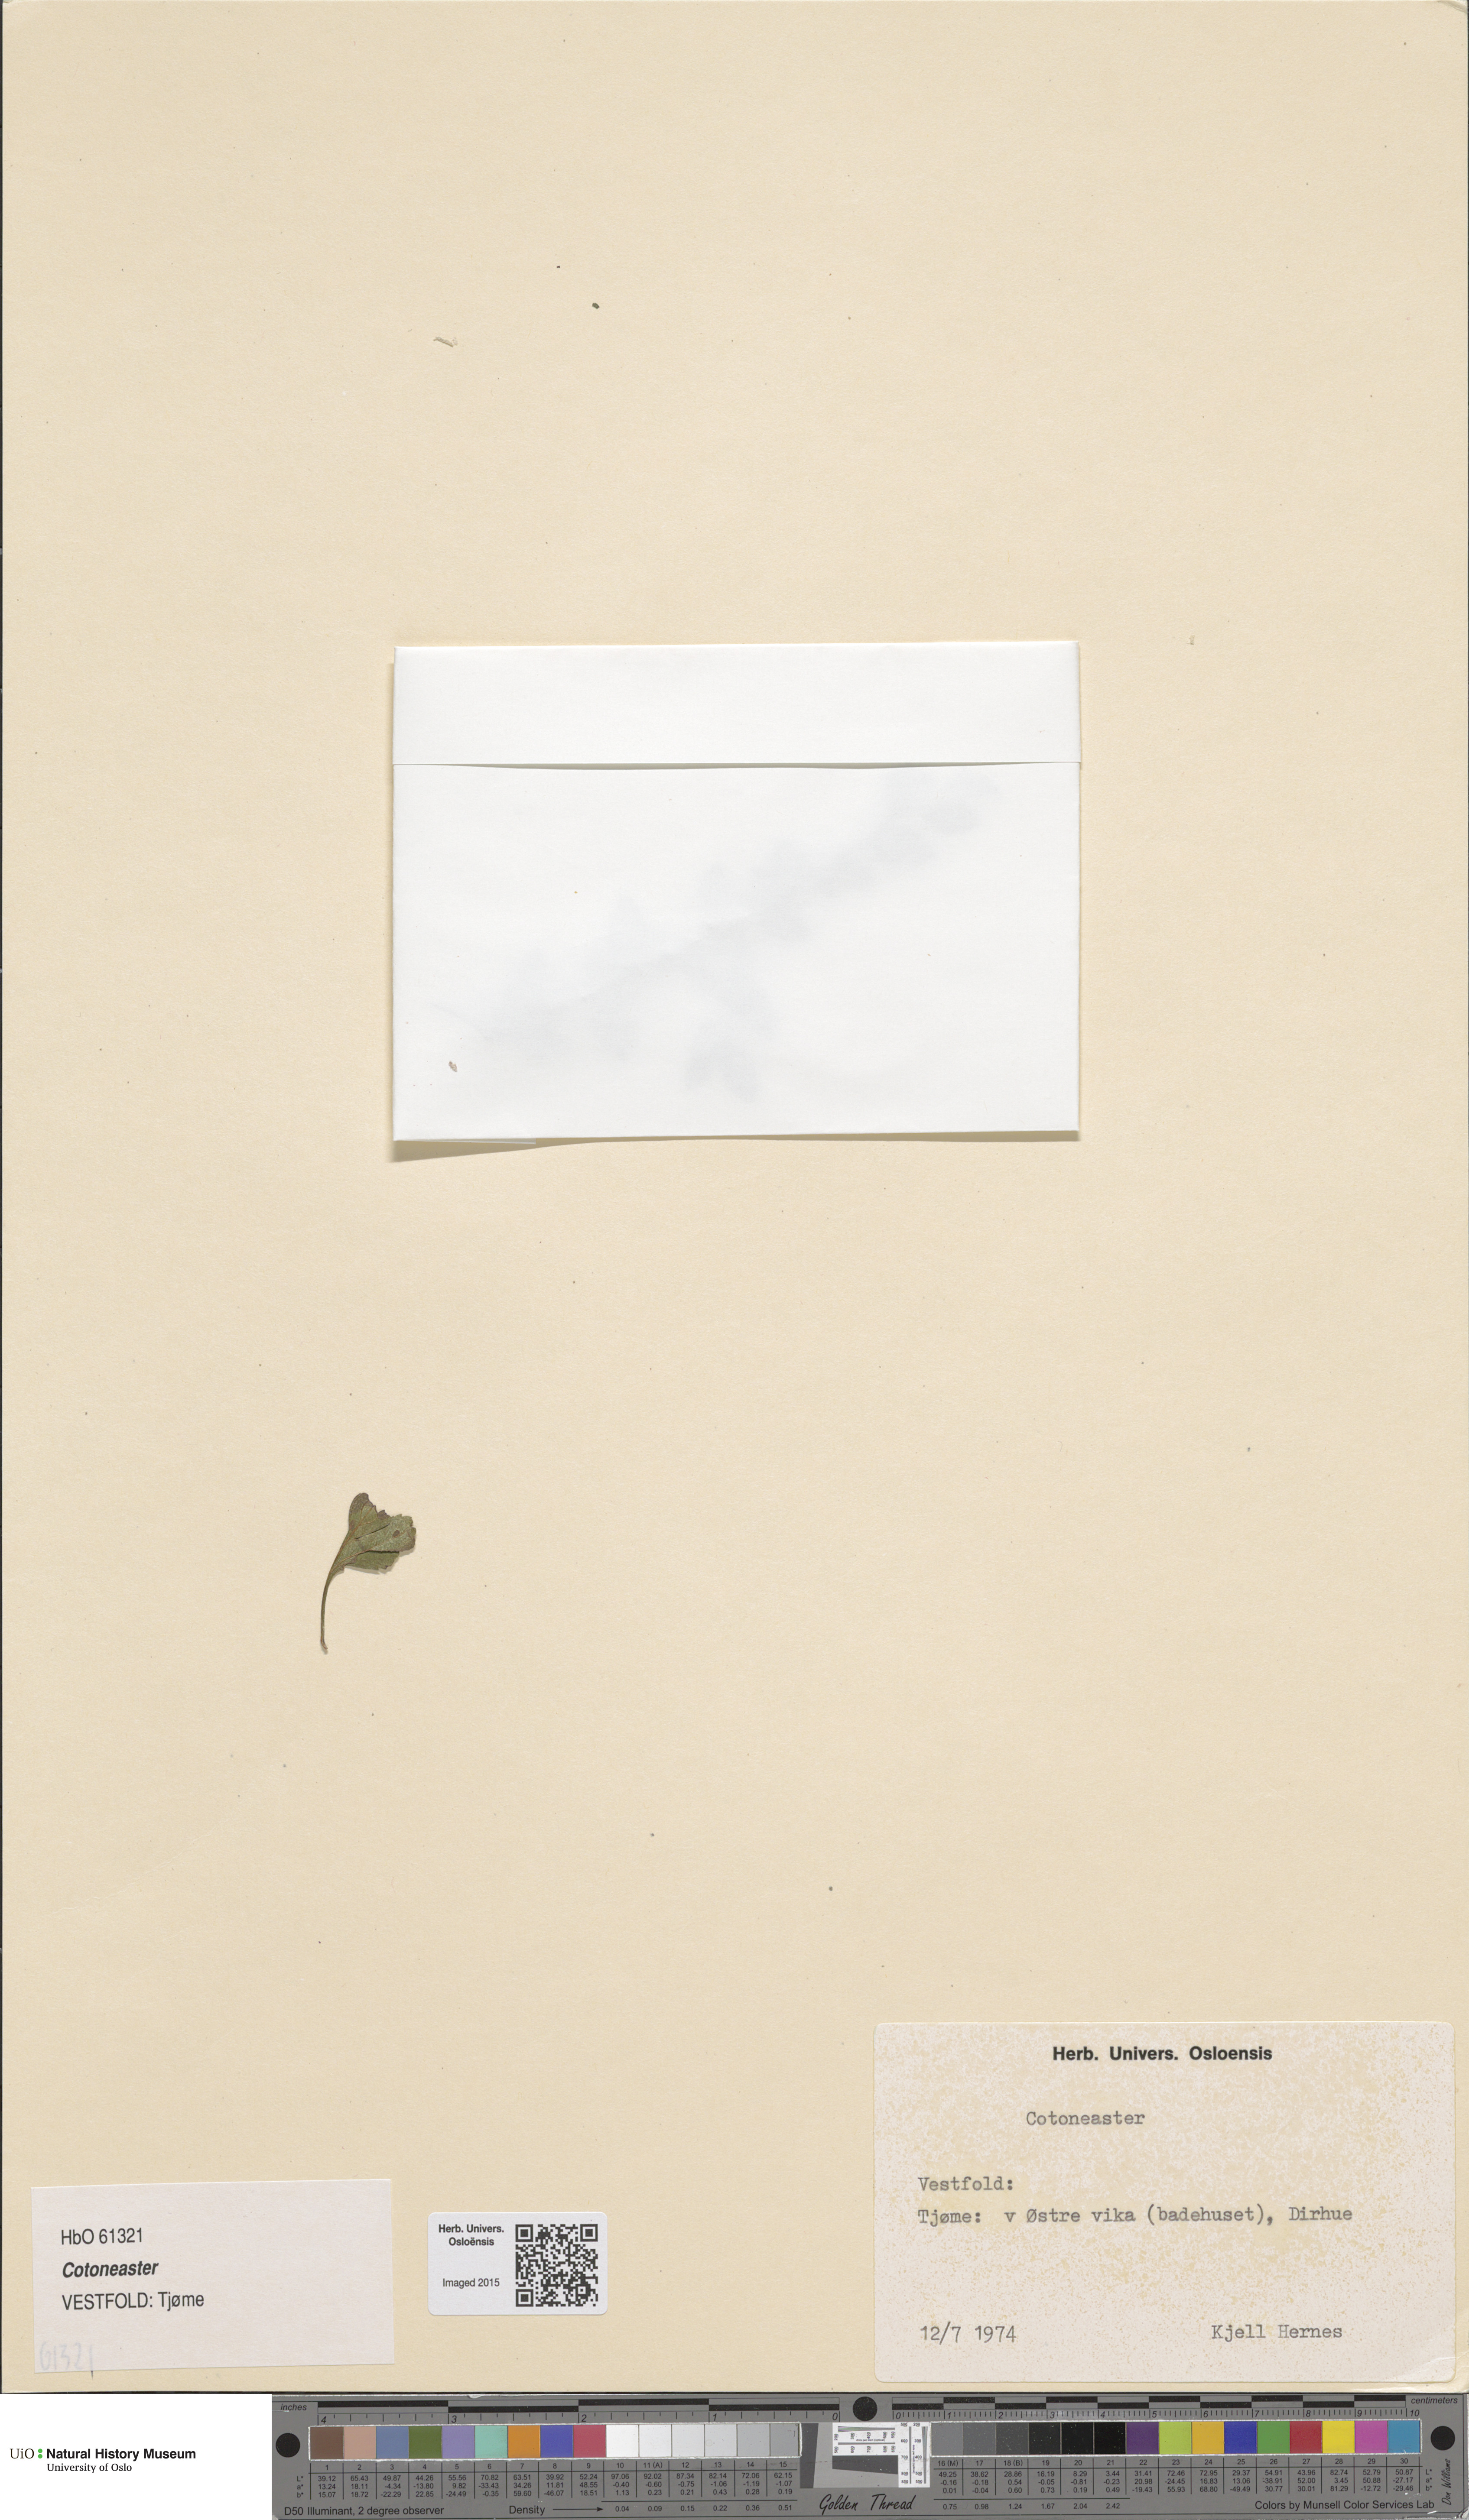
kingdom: Plantae
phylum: Tracheophyta
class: Magnoliopsida
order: Rosales
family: Rosaceae
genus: Cotoneaster
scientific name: Cotoneaster divaricatus
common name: Spreading cotoneaster
